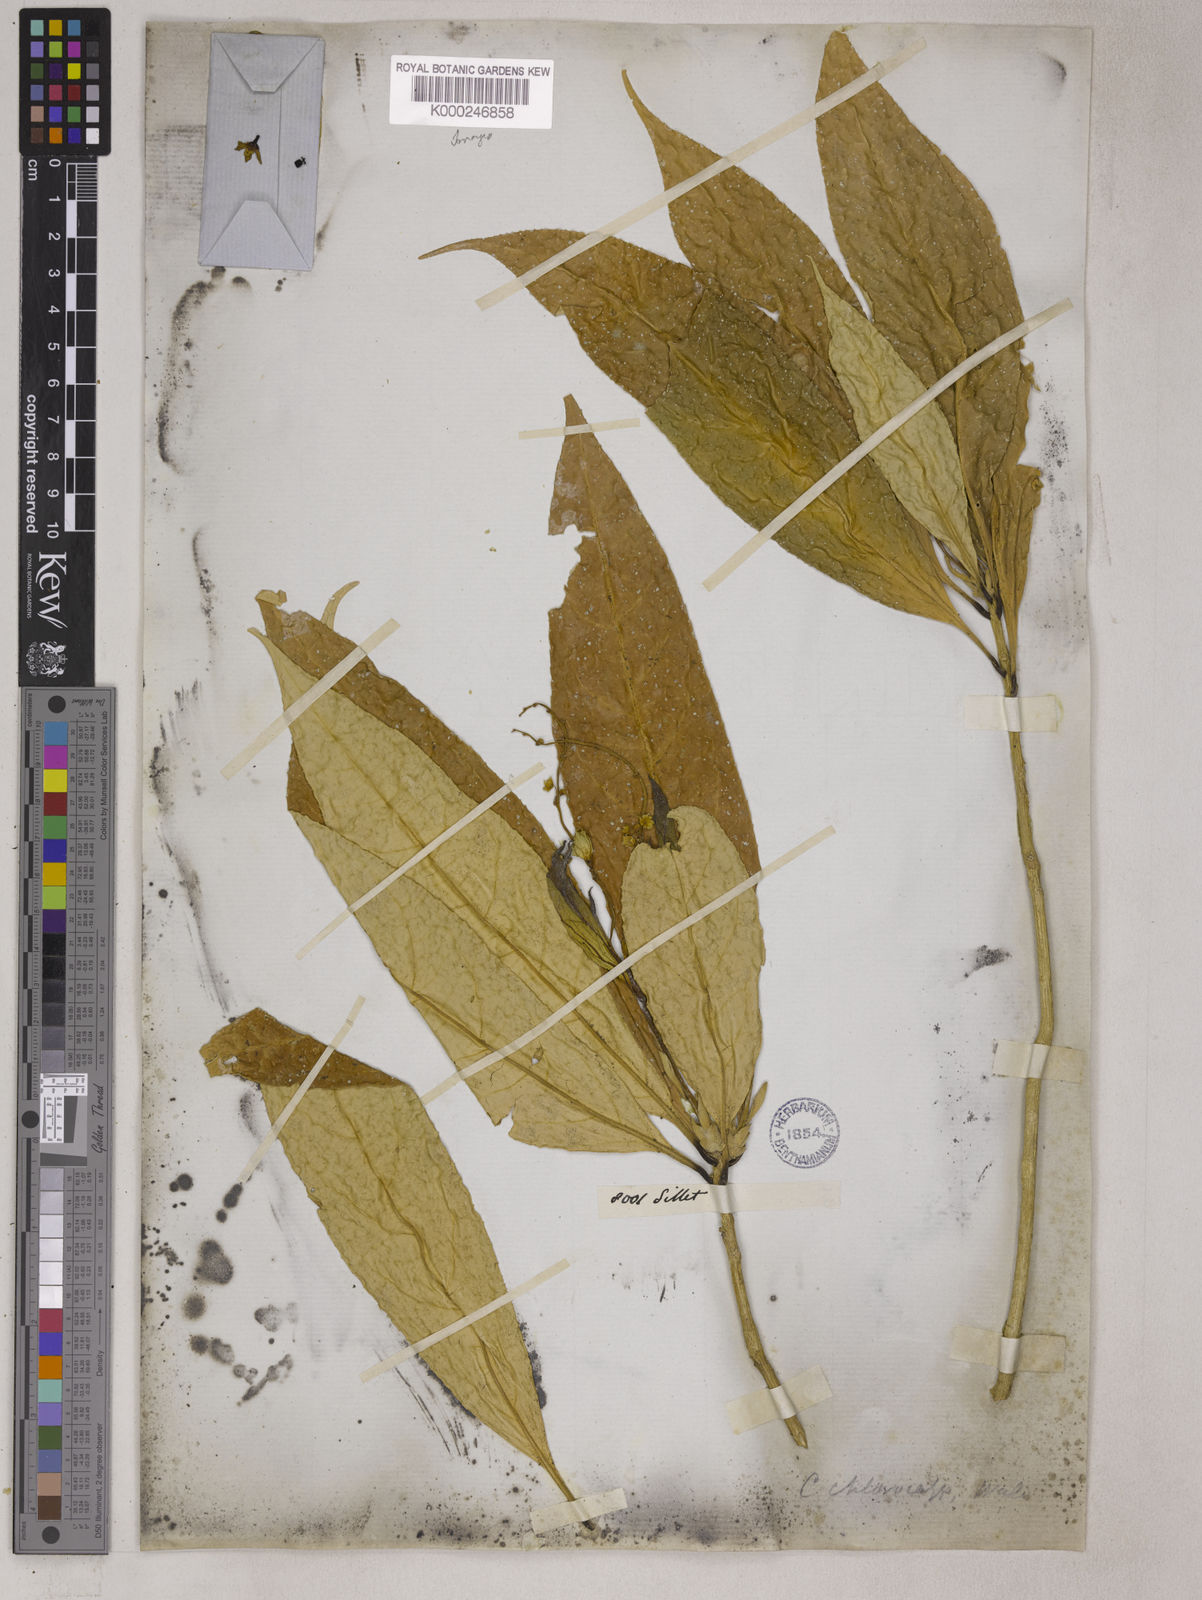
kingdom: Plantae
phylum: Tracheophyta
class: Magnoliopsida
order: Malpighiales
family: Euphorbiaceae
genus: Croton
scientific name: Croton
